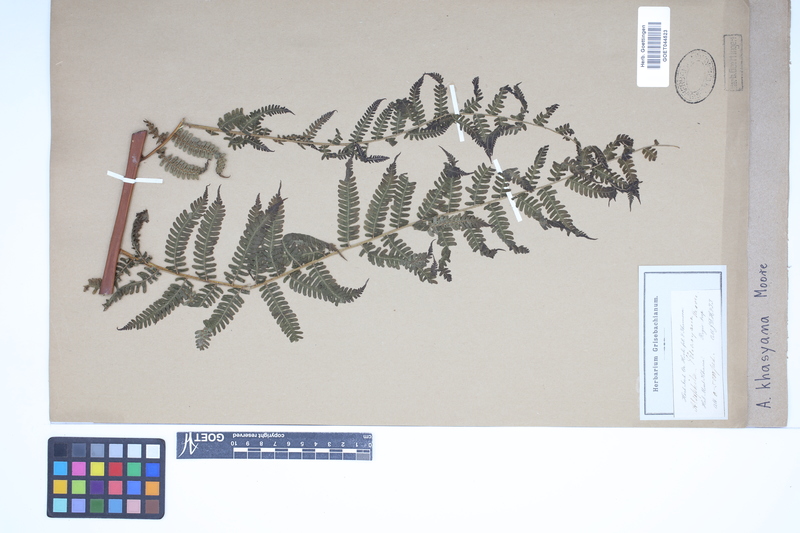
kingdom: Plantae
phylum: Tracheophyta
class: Polypodiopsida
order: Cyatheales
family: Cyatheaceae
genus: Gymnosphaera
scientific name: Gymnosphaera khasyana
